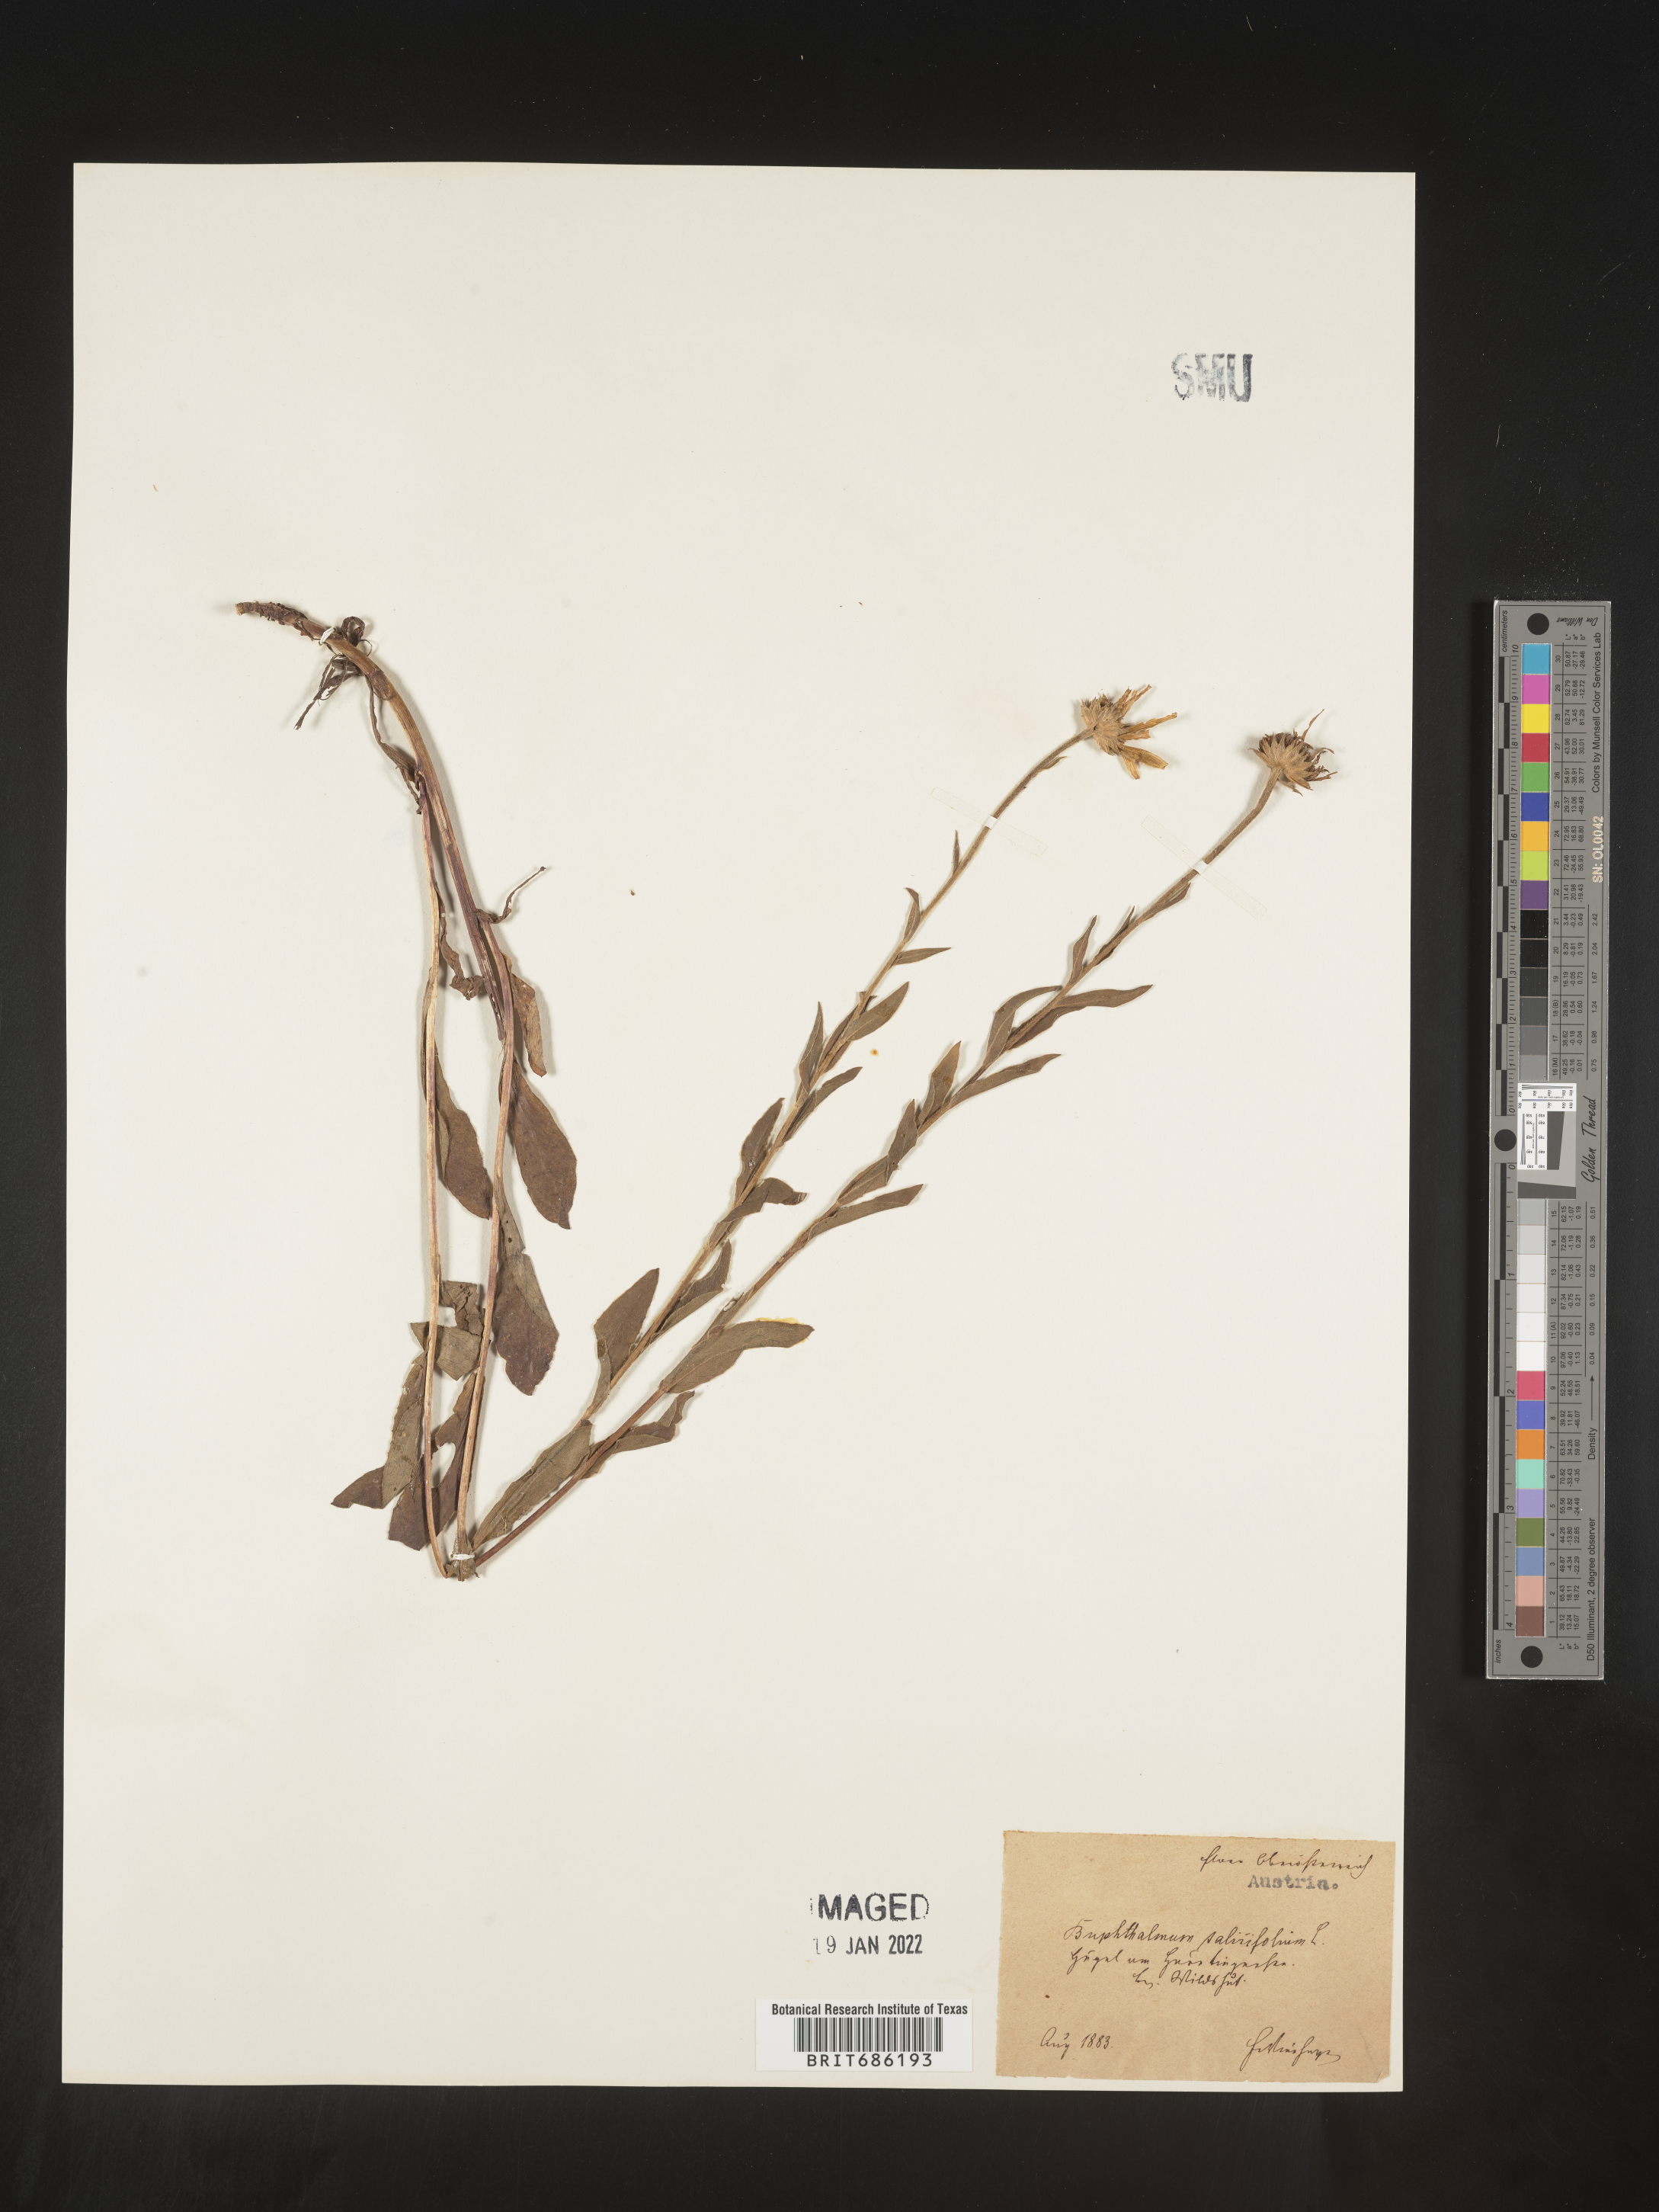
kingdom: Plantae
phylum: Tracheophyta
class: Magnoliopsida
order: Asterales
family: Asteraceae
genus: Buphthalmum
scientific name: Buphthalmum
